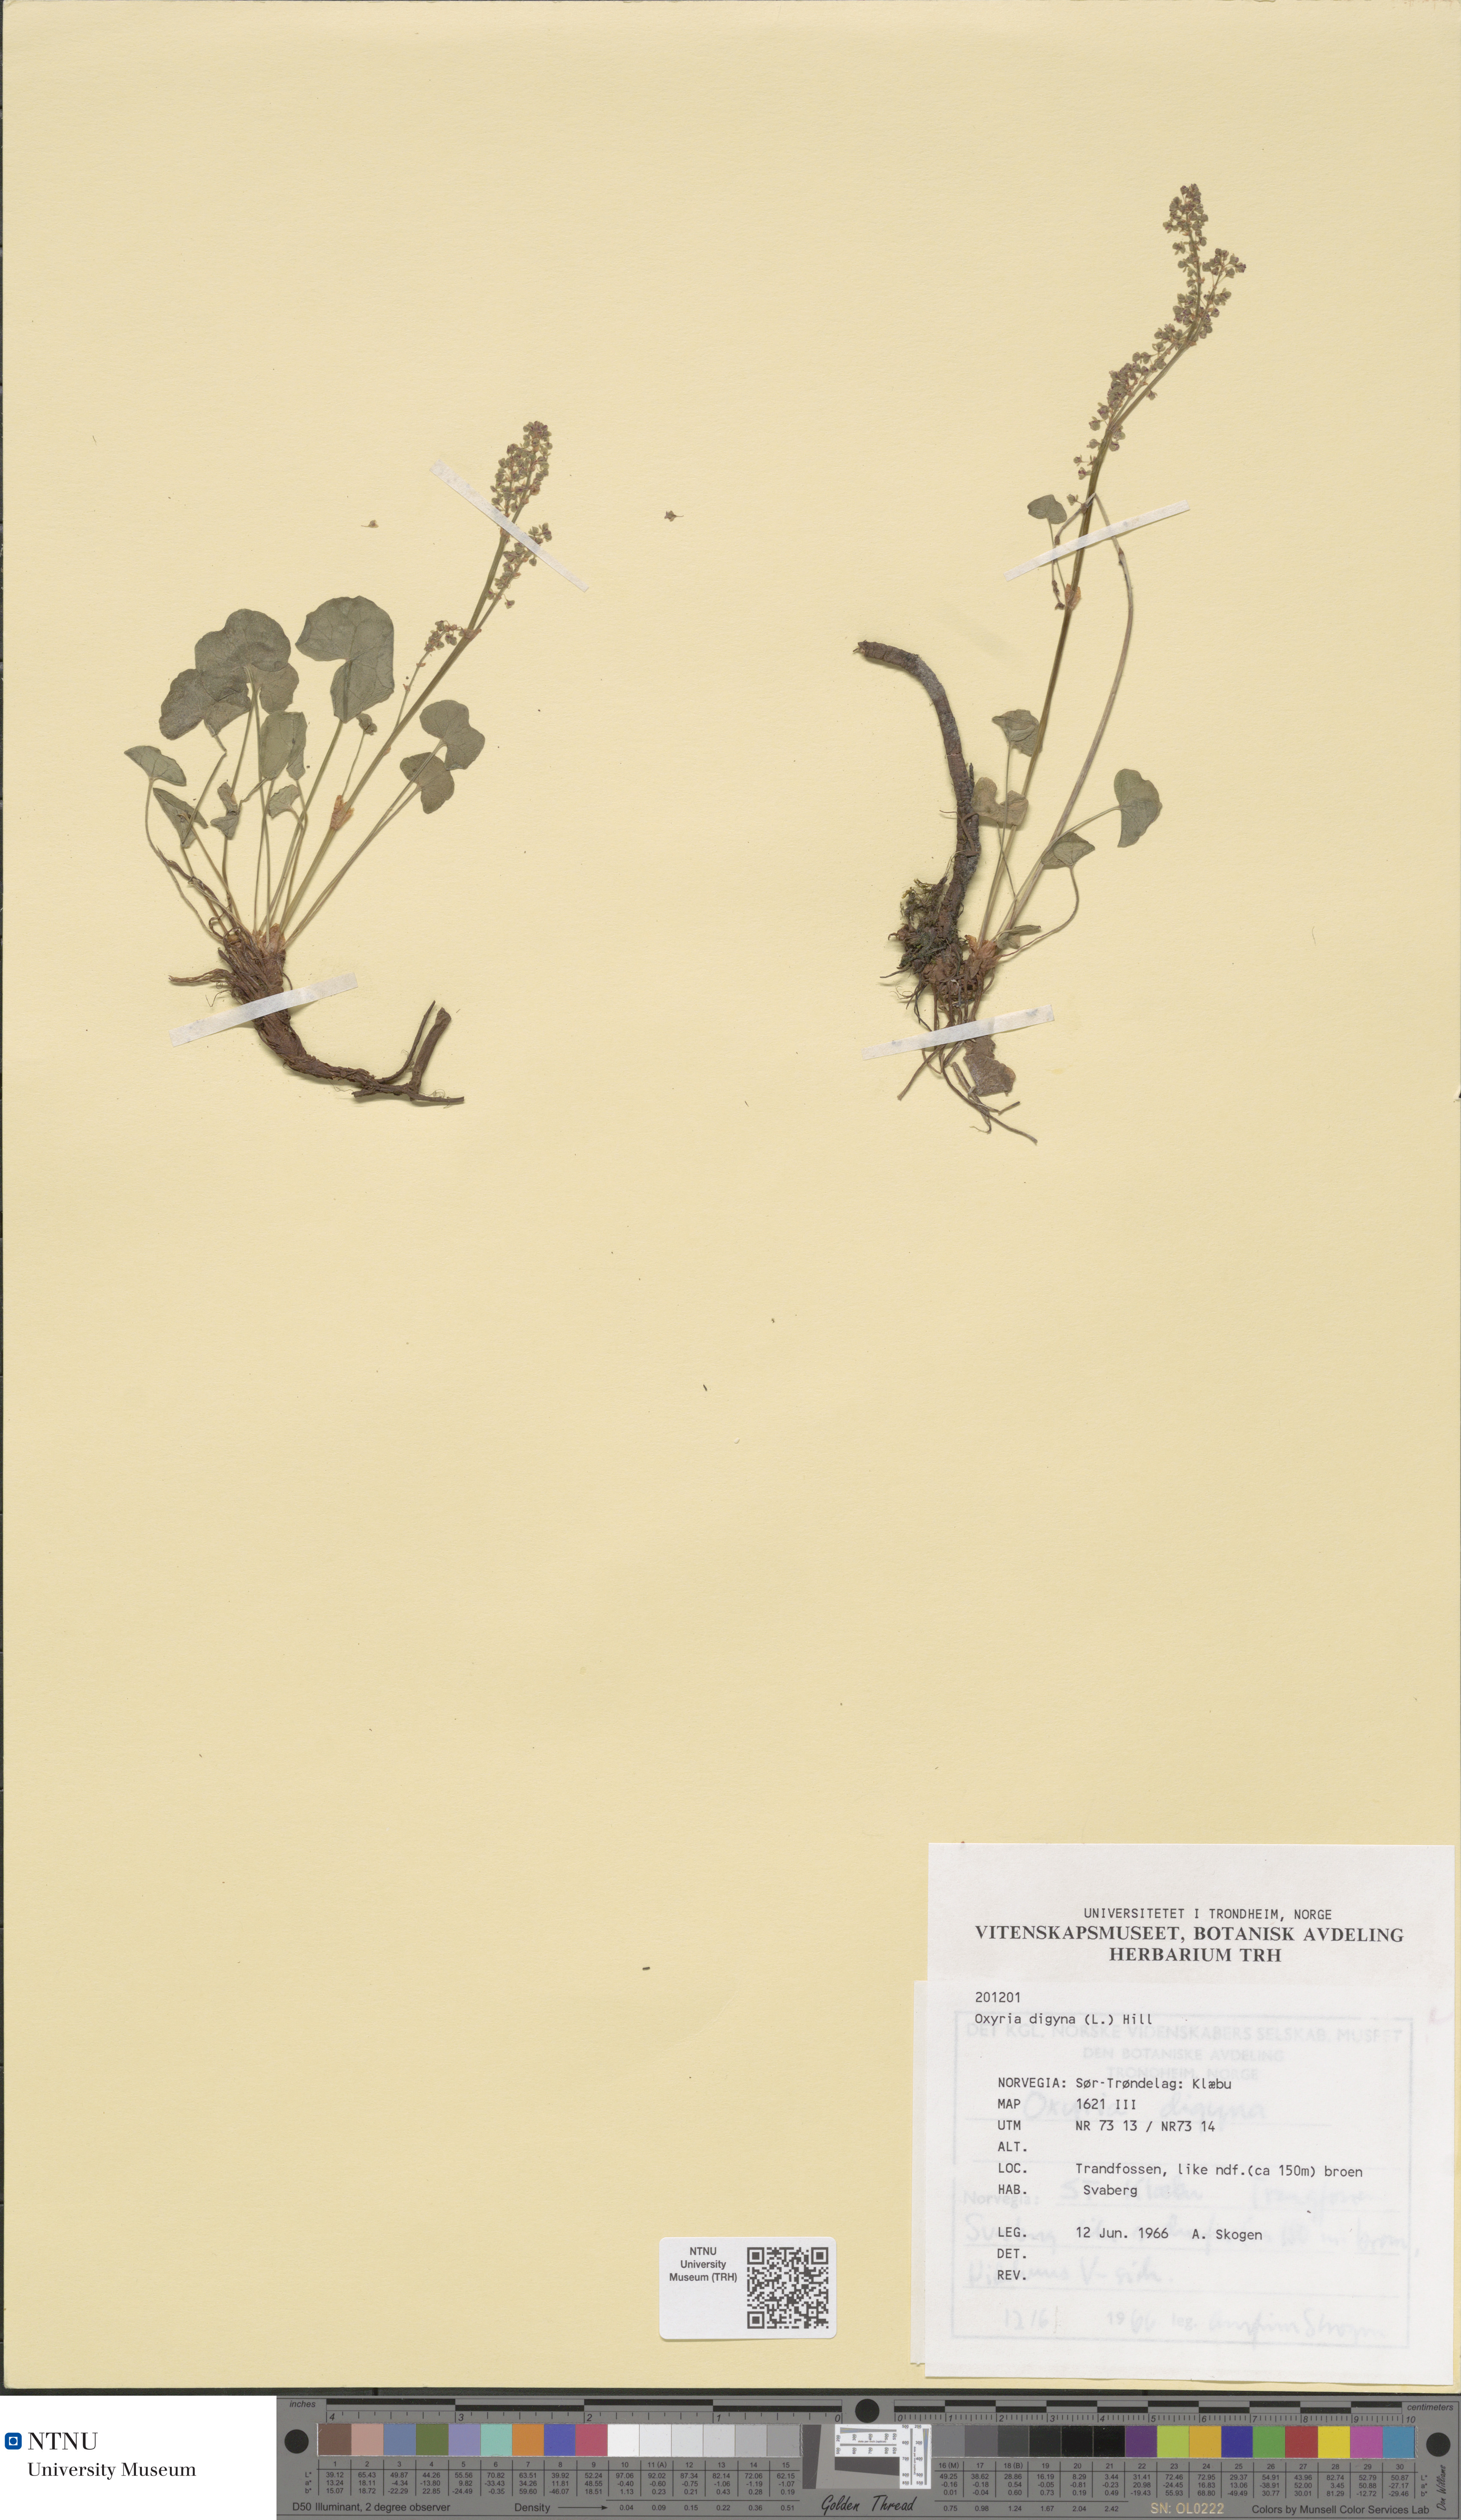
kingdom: Plantae
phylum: Tracheophyta
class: Magnoliopsida
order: Caryophyllales
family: Polygonaceae
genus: Oxyria
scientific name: Oxyria digyna
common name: Alpine mountain-sorrel
